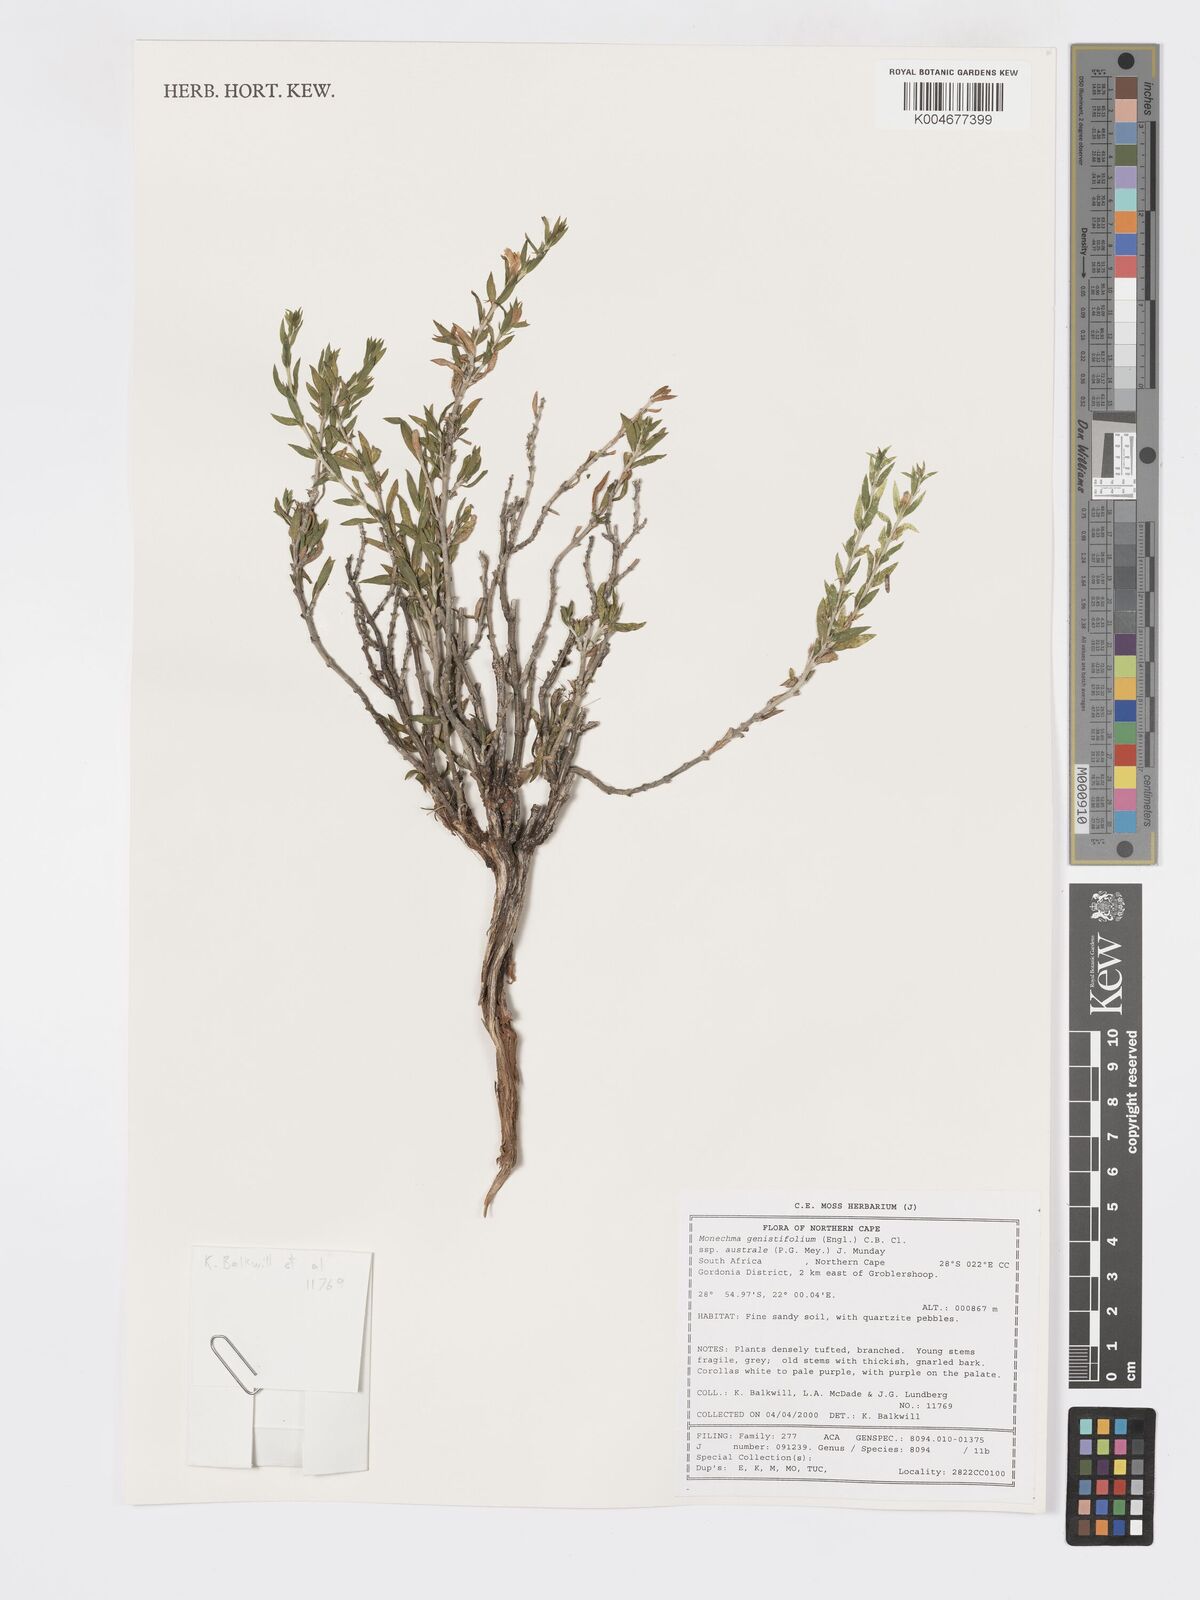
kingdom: Plantae
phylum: Tracheophyta
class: Magnoliopsida
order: Lamiales
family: Acanthaceae
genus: Pogonospermum
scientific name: Pogonospermum
